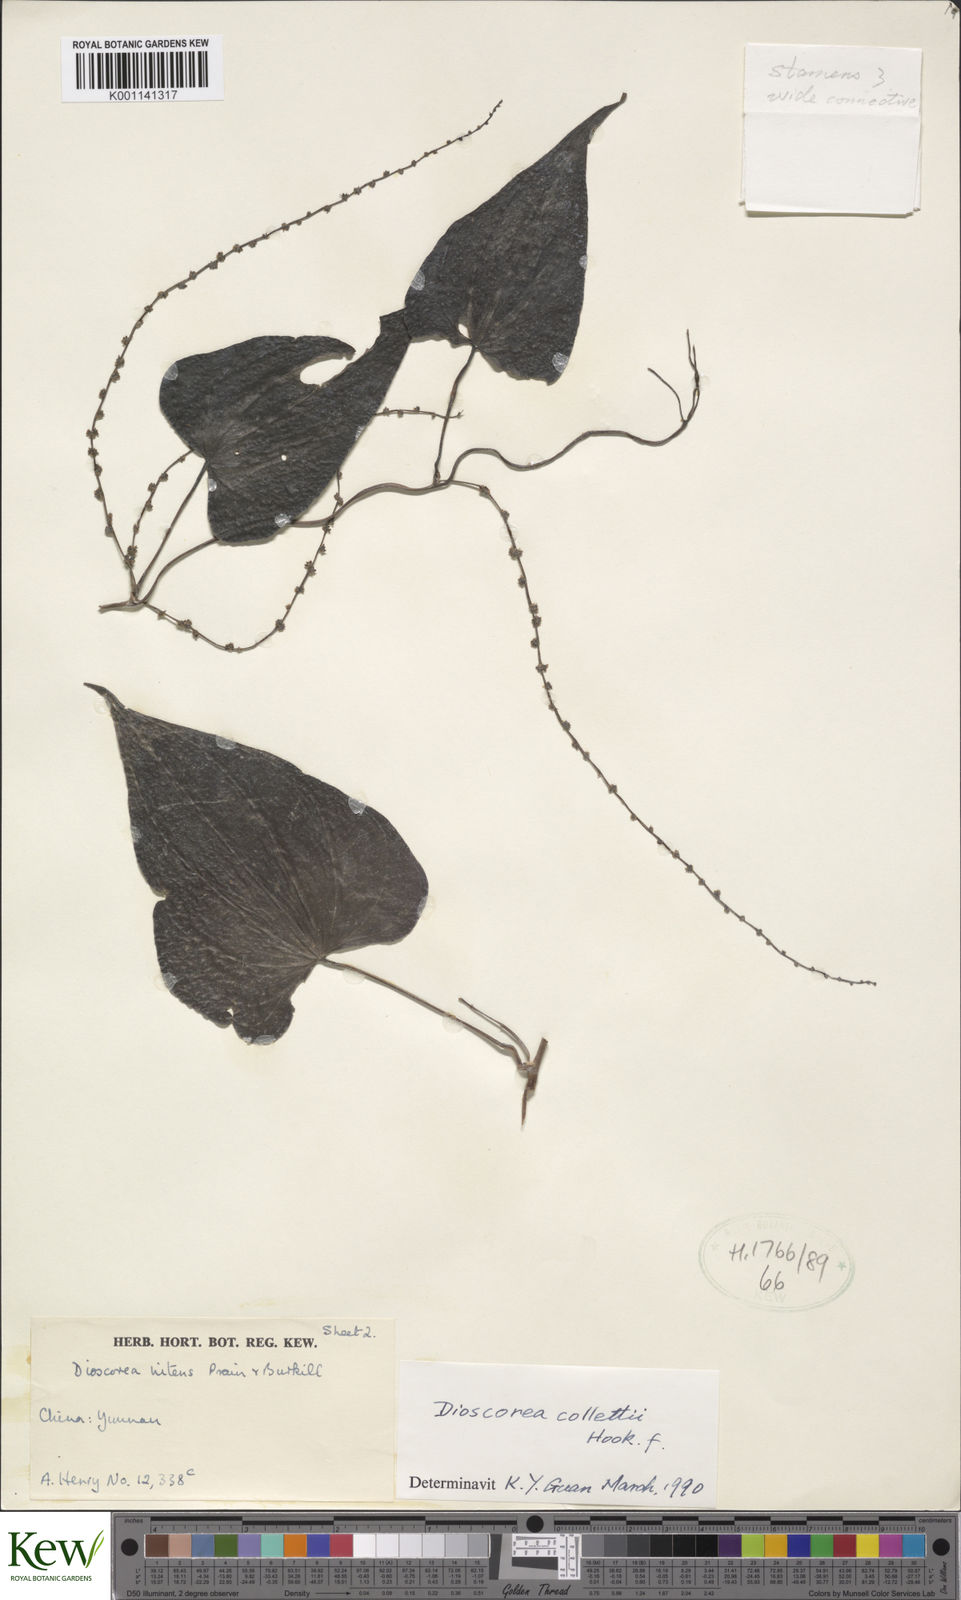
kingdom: Plantae
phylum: Tracheophyta
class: Liliopsida
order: Dioscoreales
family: Dioscoreaceae
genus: Dioscorea
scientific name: Dioscorea collettii
